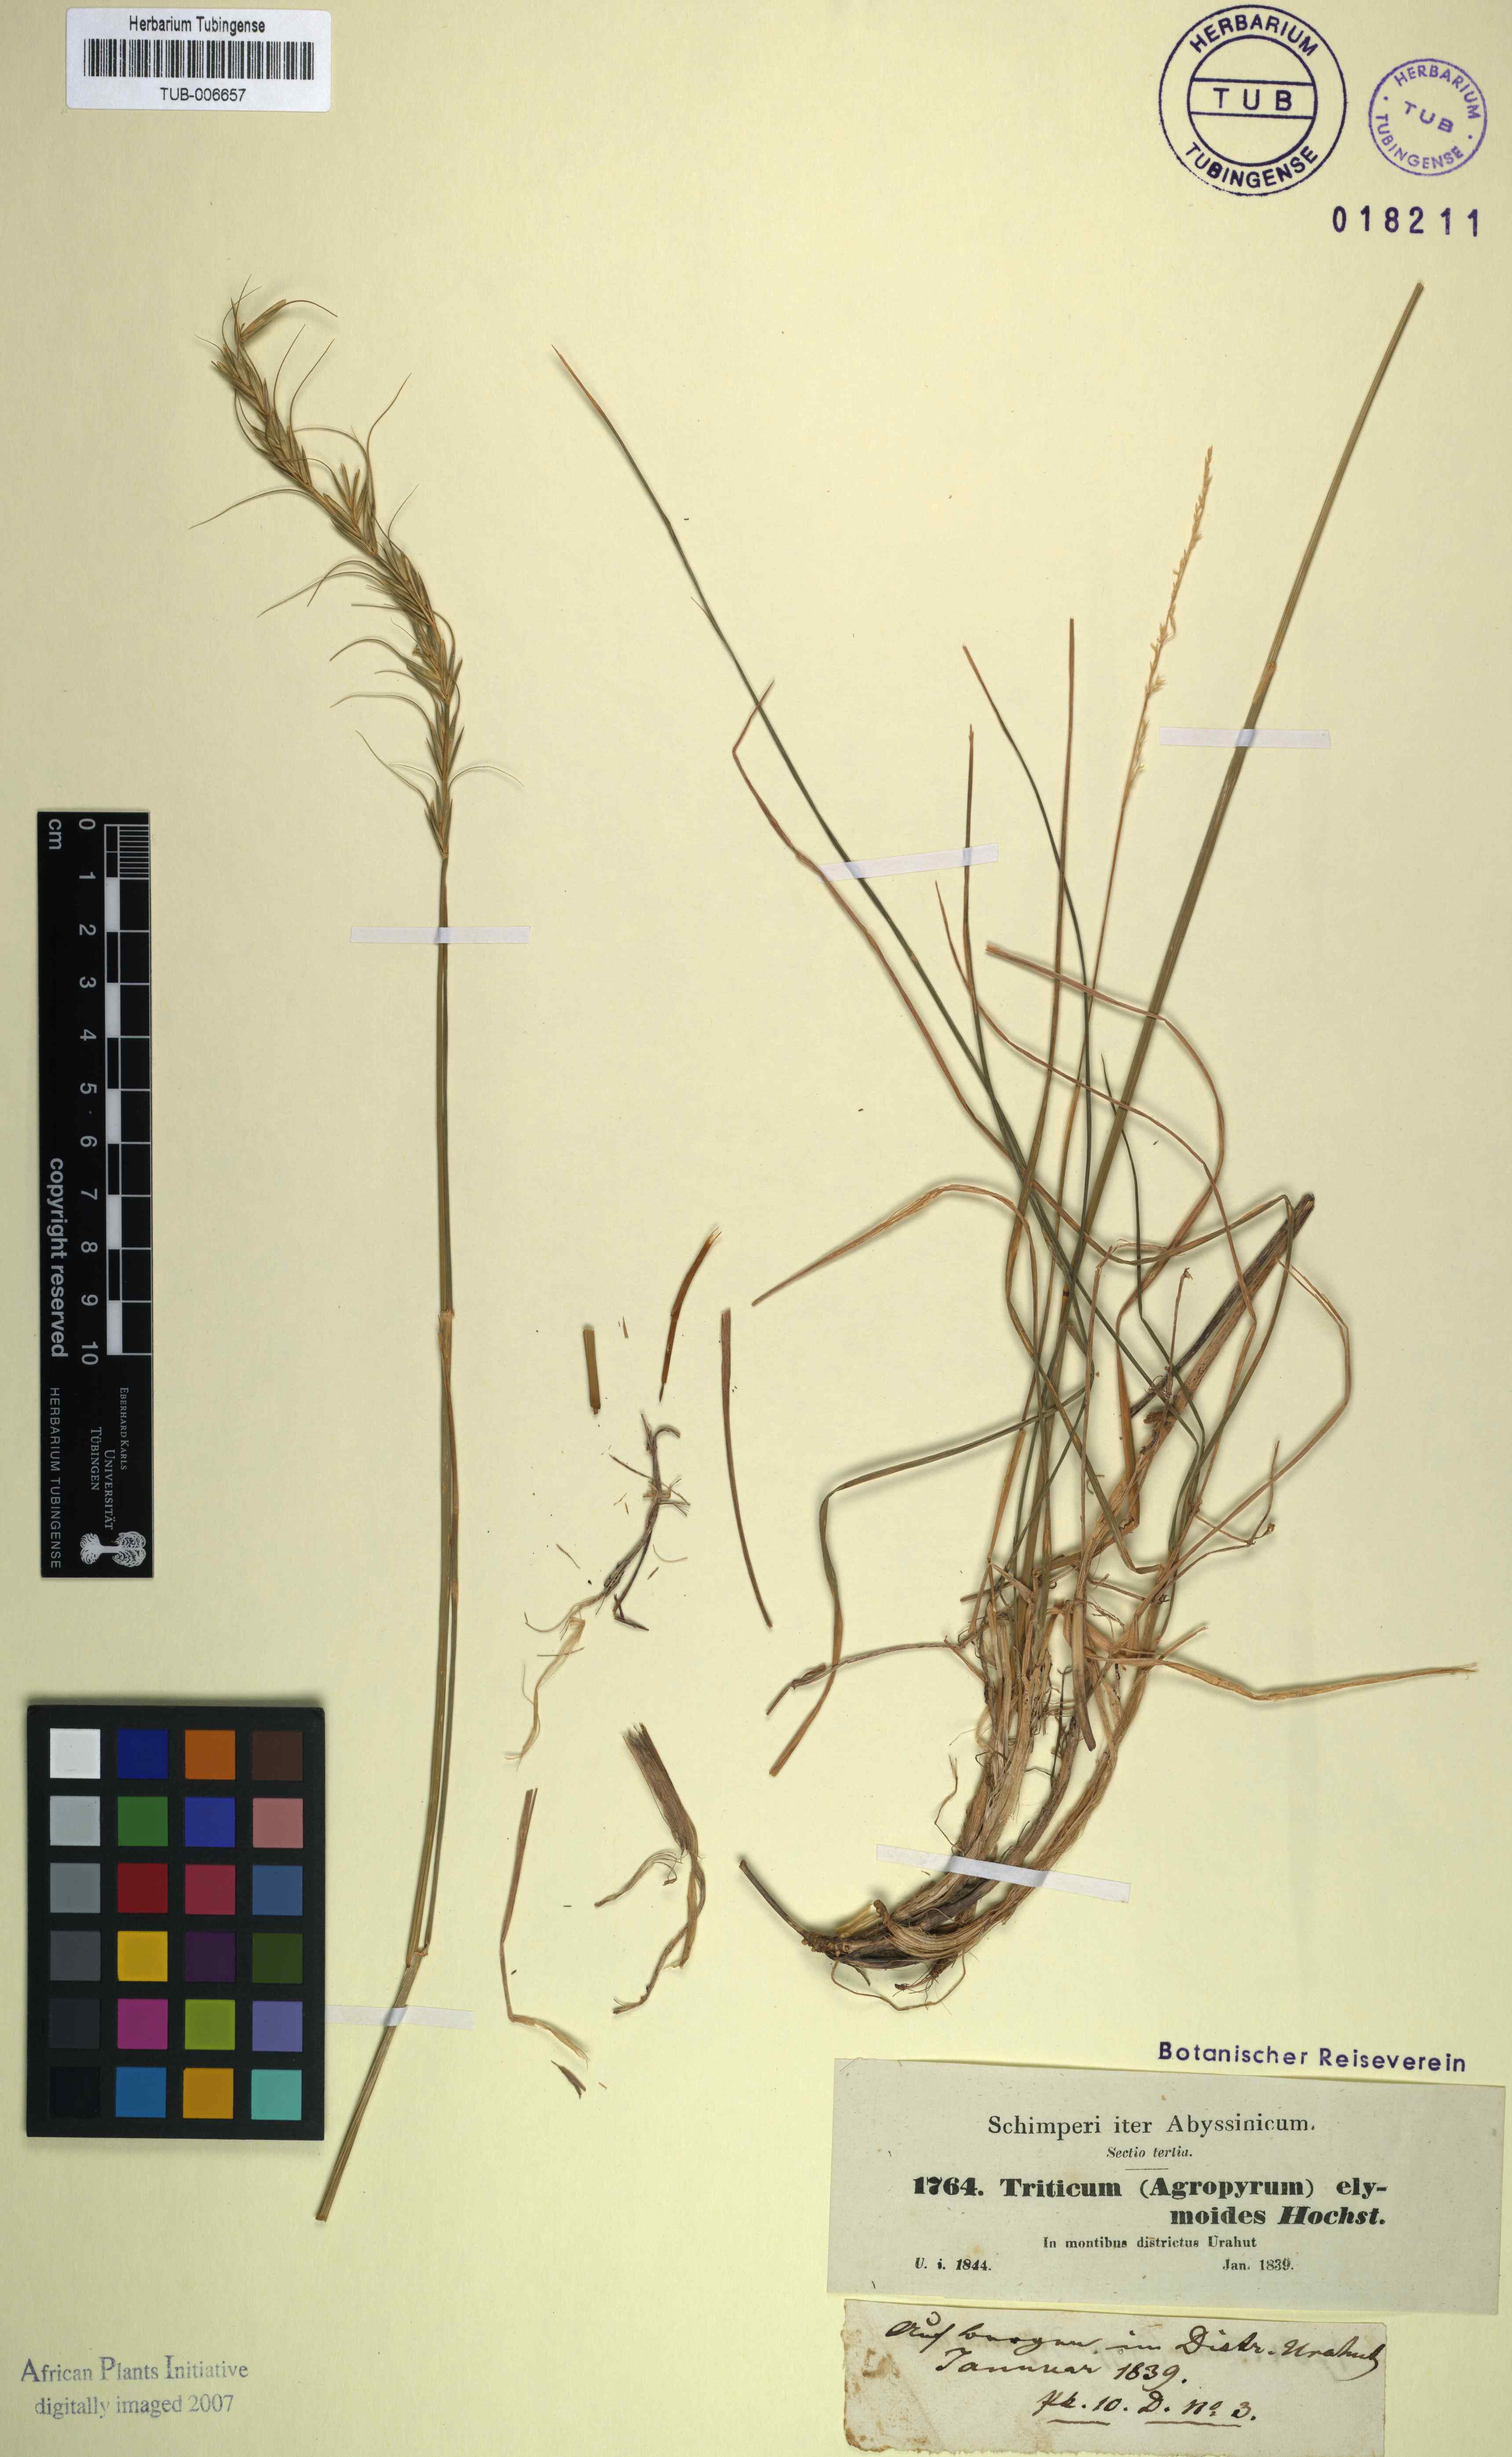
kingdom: Plantae
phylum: Tracheophyta
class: Liliopsida
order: Poales
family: Poaceae
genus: Elymus
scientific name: Elymus africanus
